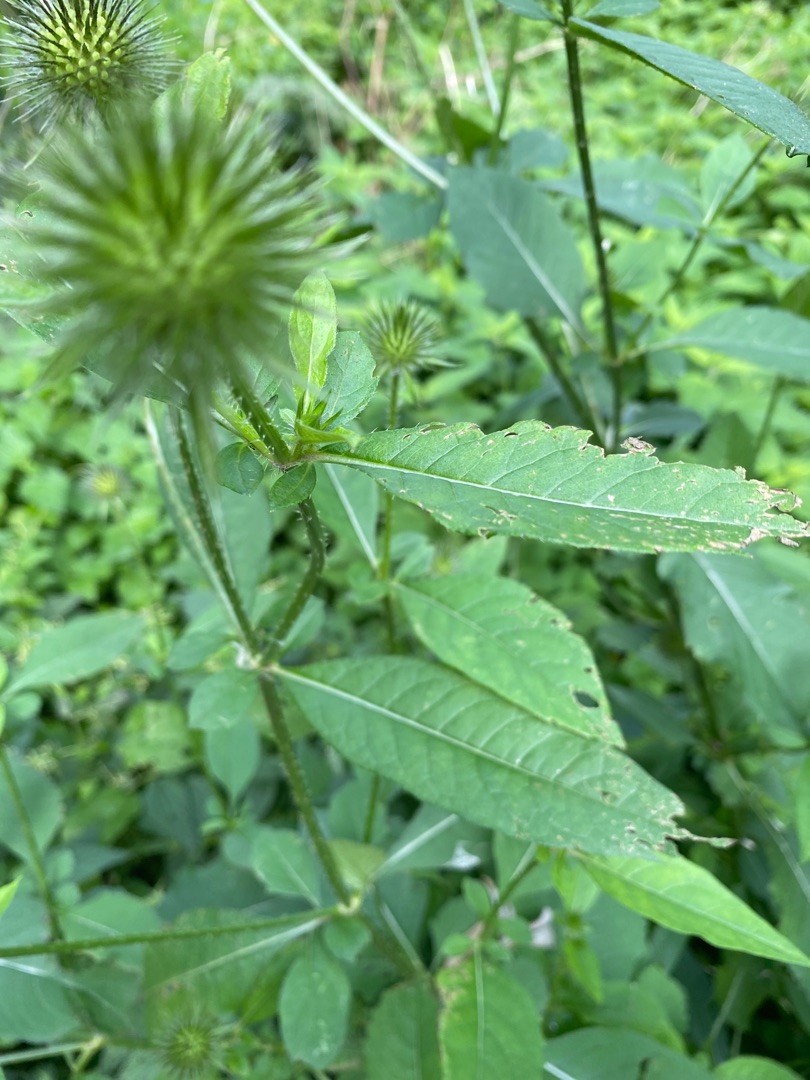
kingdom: Plantae
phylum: Tracheophyta
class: Magnoliopsida
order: Dipsacales
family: Caprifoliaceae
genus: Dipsacus
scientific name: Dipsacus strigosus
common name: Pindsvin-kartebolle
